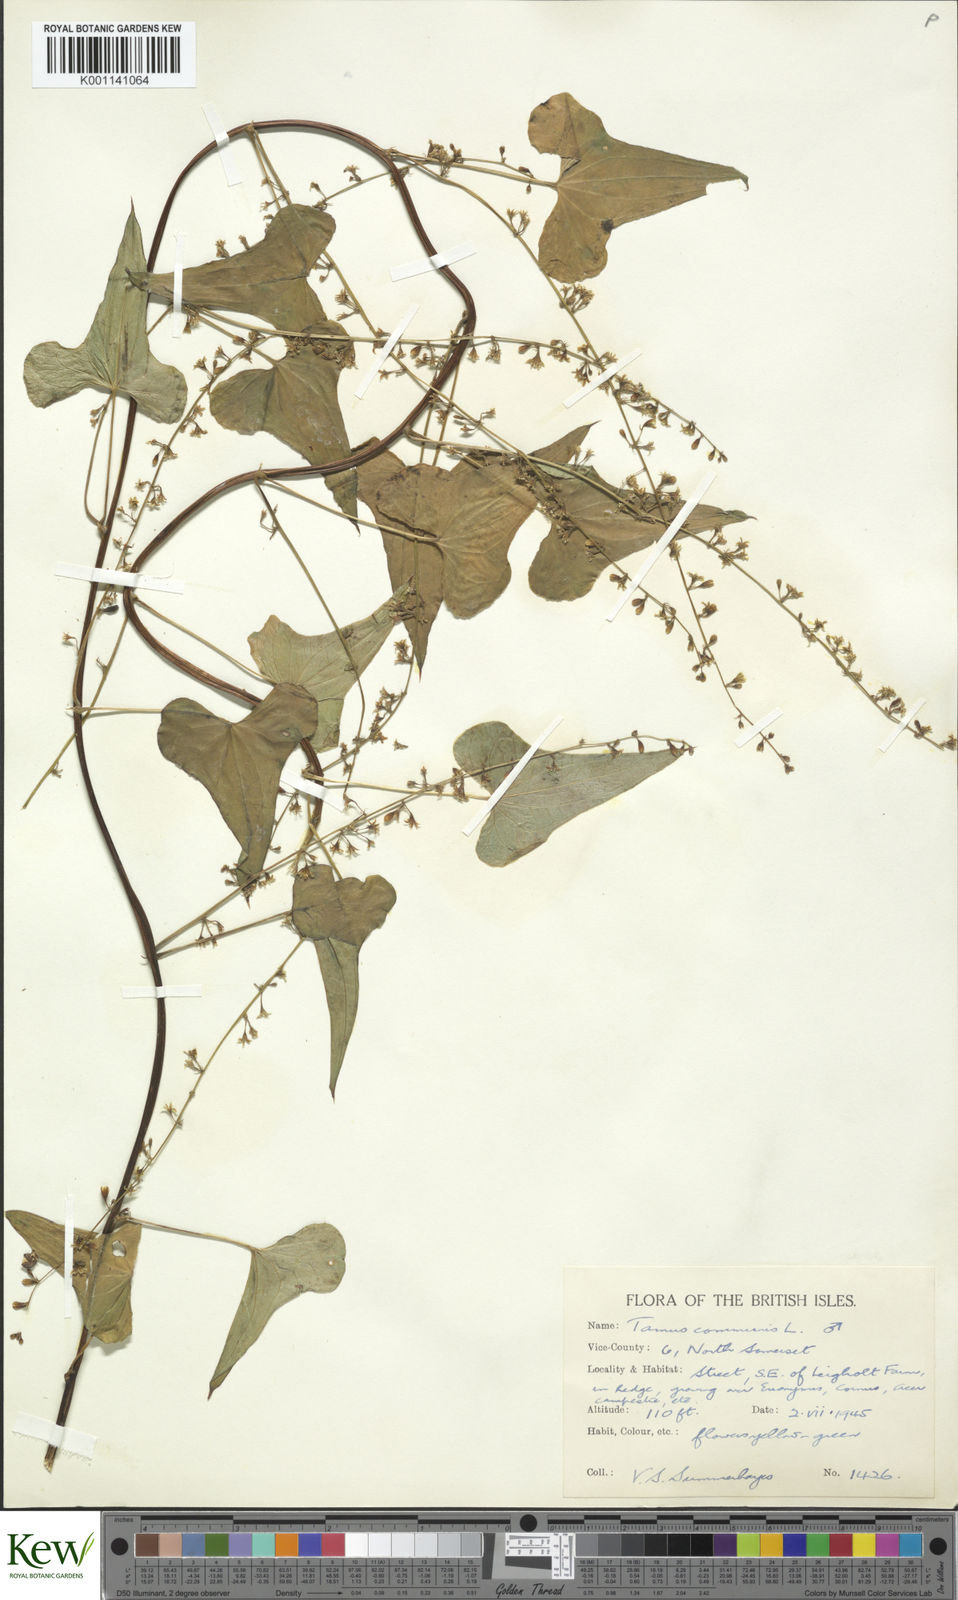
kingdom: Plantae
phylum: Tracheophyta
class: Liliopsida
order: Dioscoreales
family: Dioscoreaceae
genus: Dioscorea
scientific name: Dioscorea communis
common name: Black-bindweed
